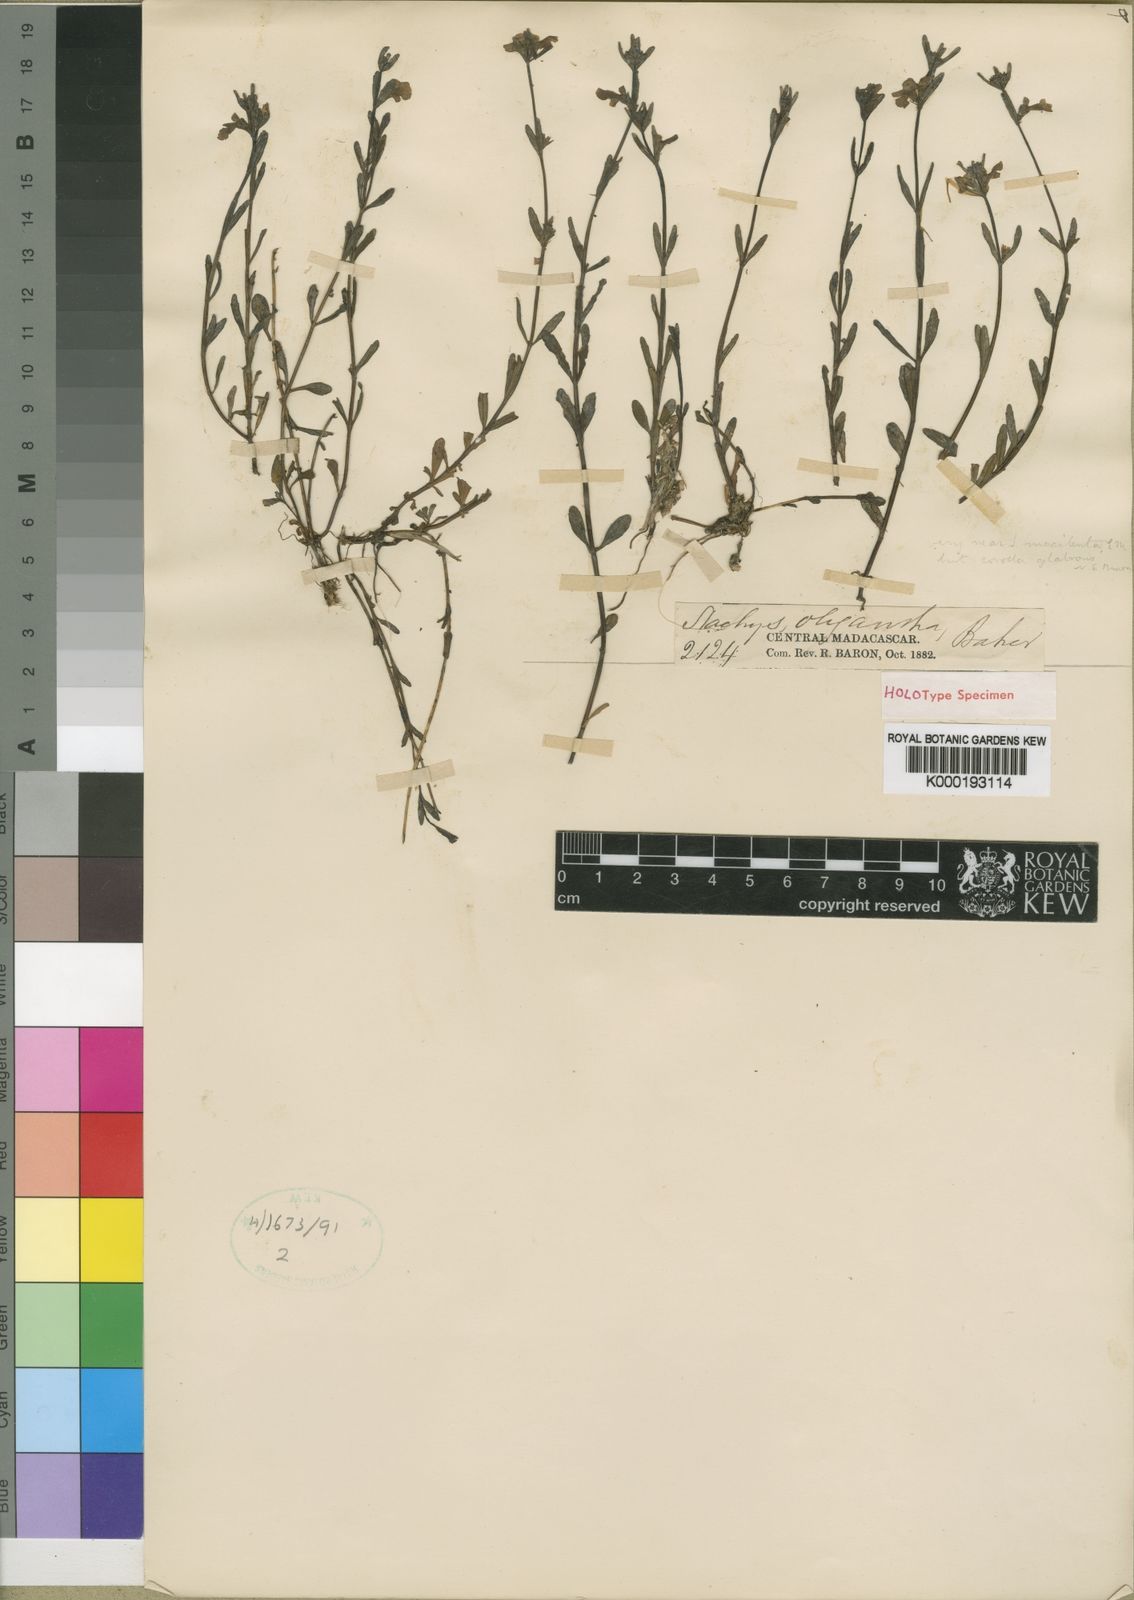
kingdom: Plantae
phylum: Tracheophyta
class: Magnoliopsida
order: Lamiales
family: Lamiaceae
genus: Stachys
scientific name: Stachys oligantha
